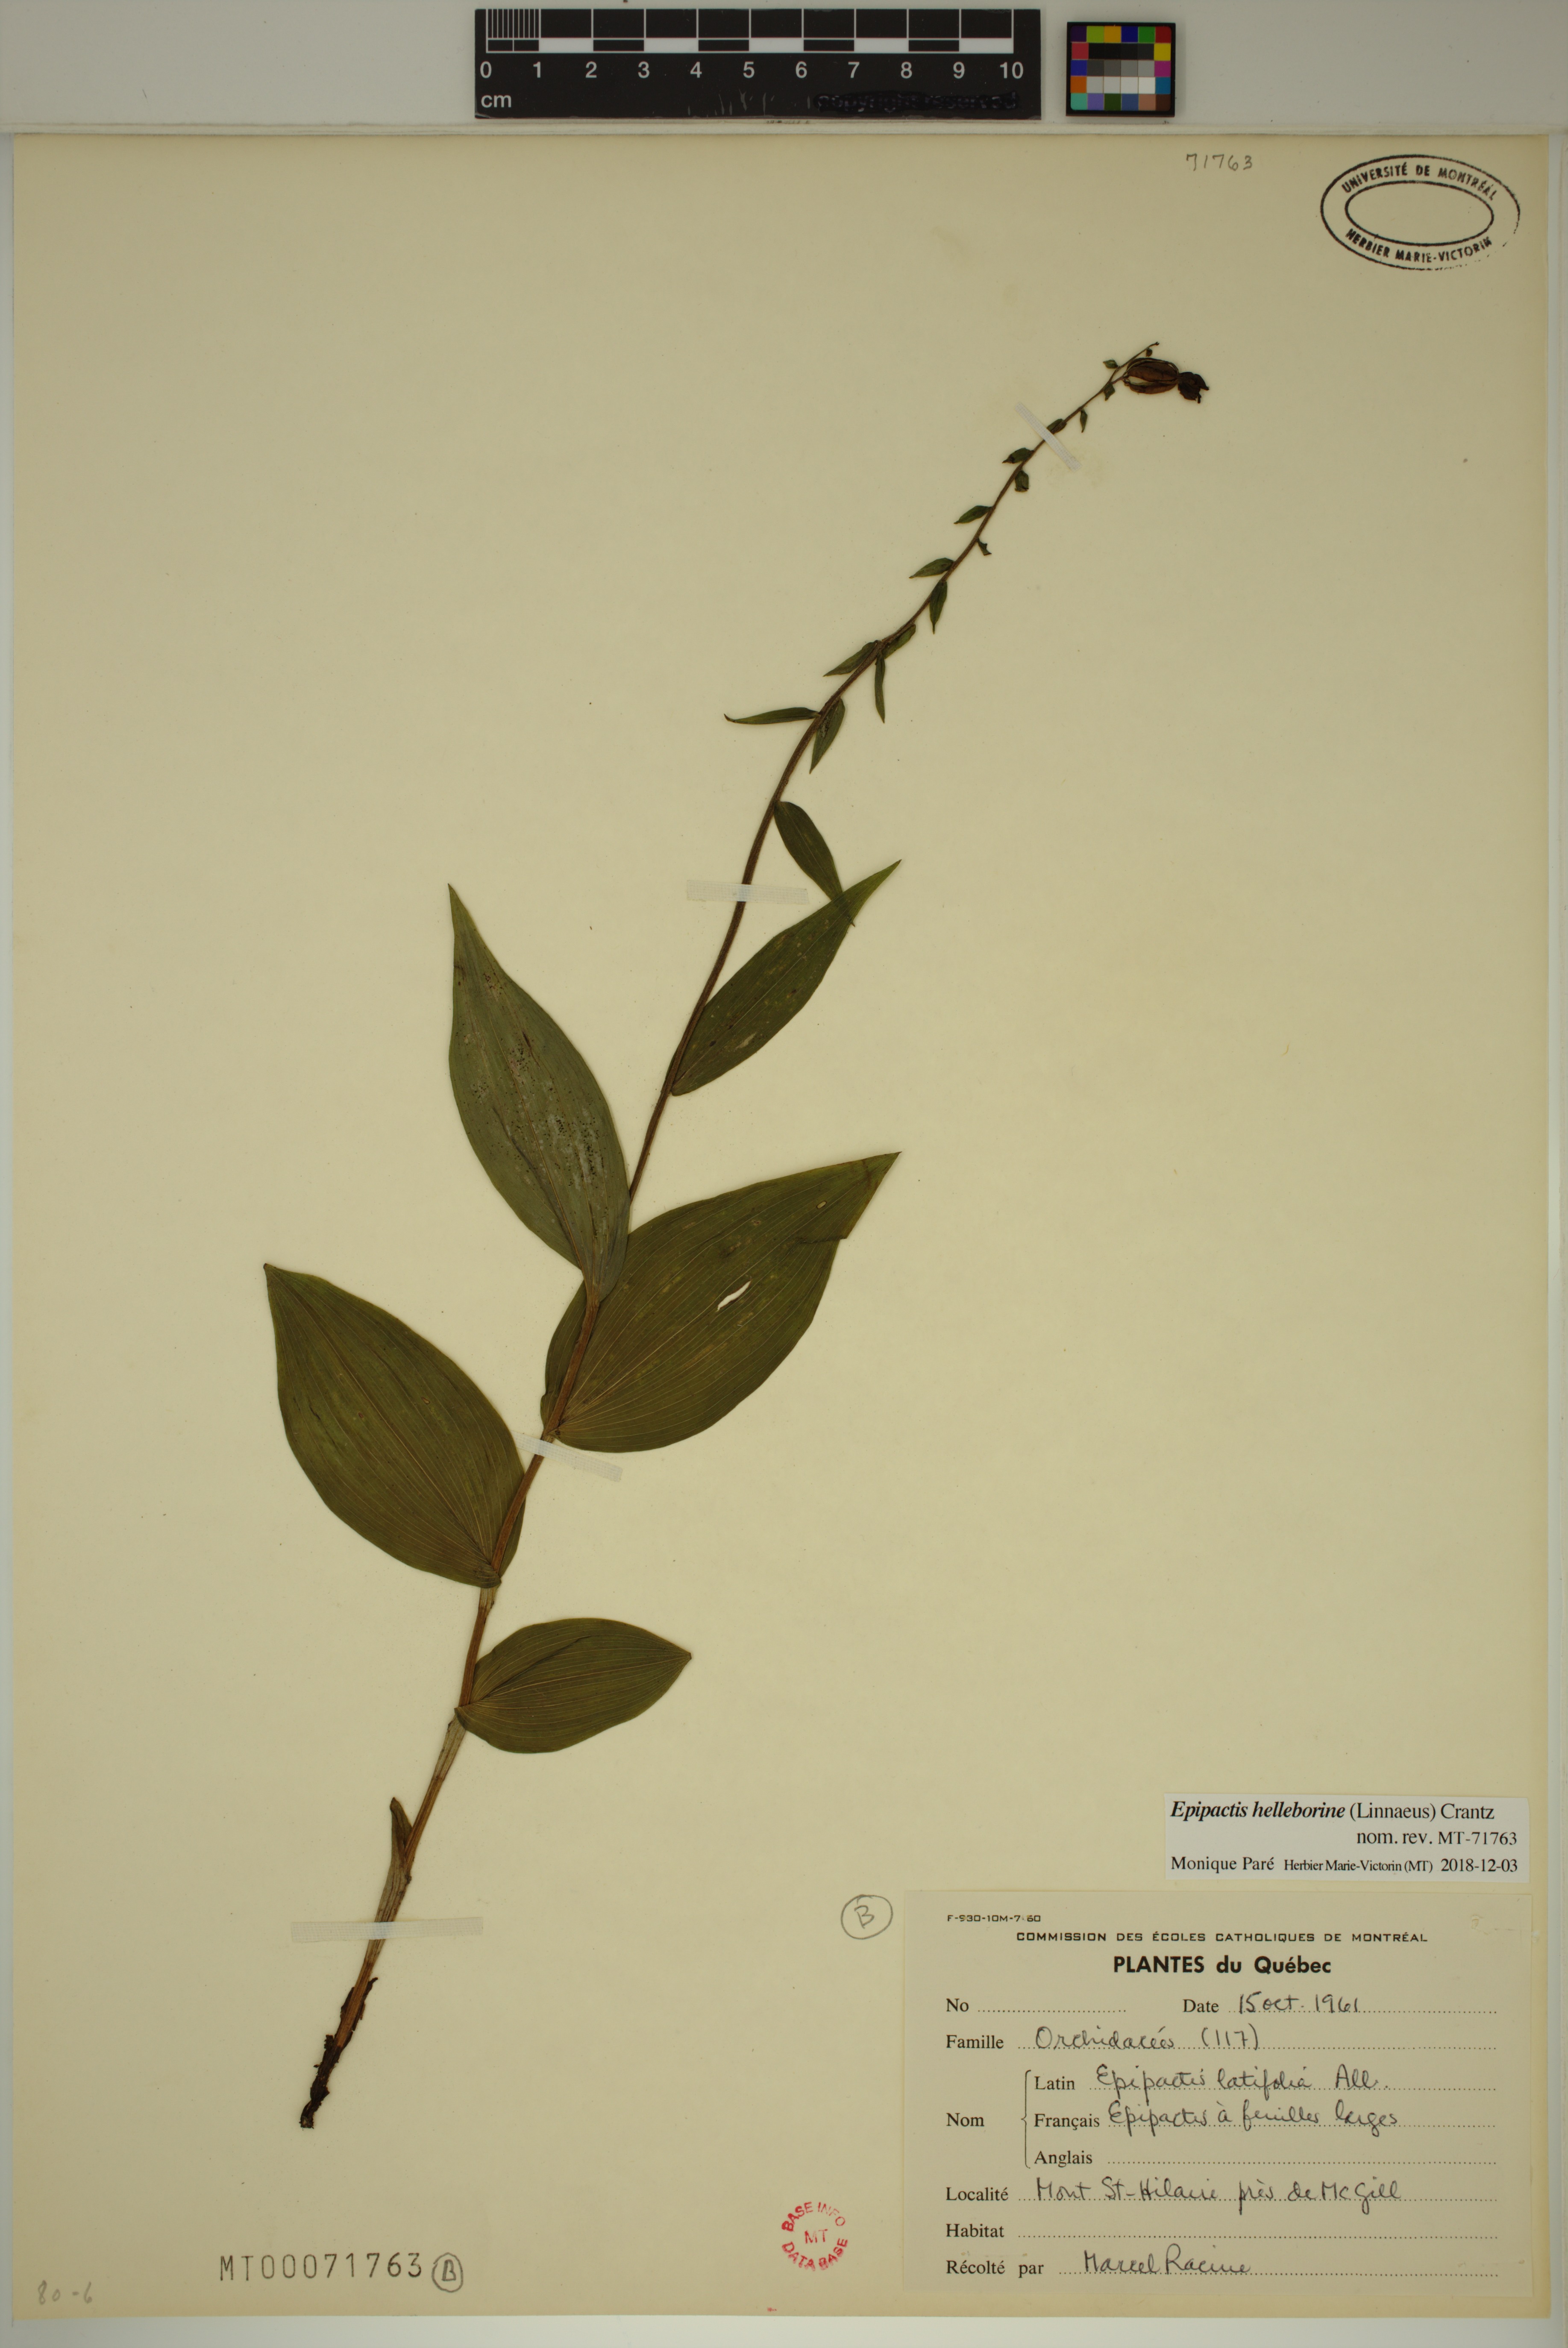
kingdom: Plantae
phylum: Tracheophyta
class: Liliopsida
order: Asparagales
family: Orchidaceae
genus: Epipactis
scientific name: Epipactis helleborine
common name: Broad-leaved helleborine
